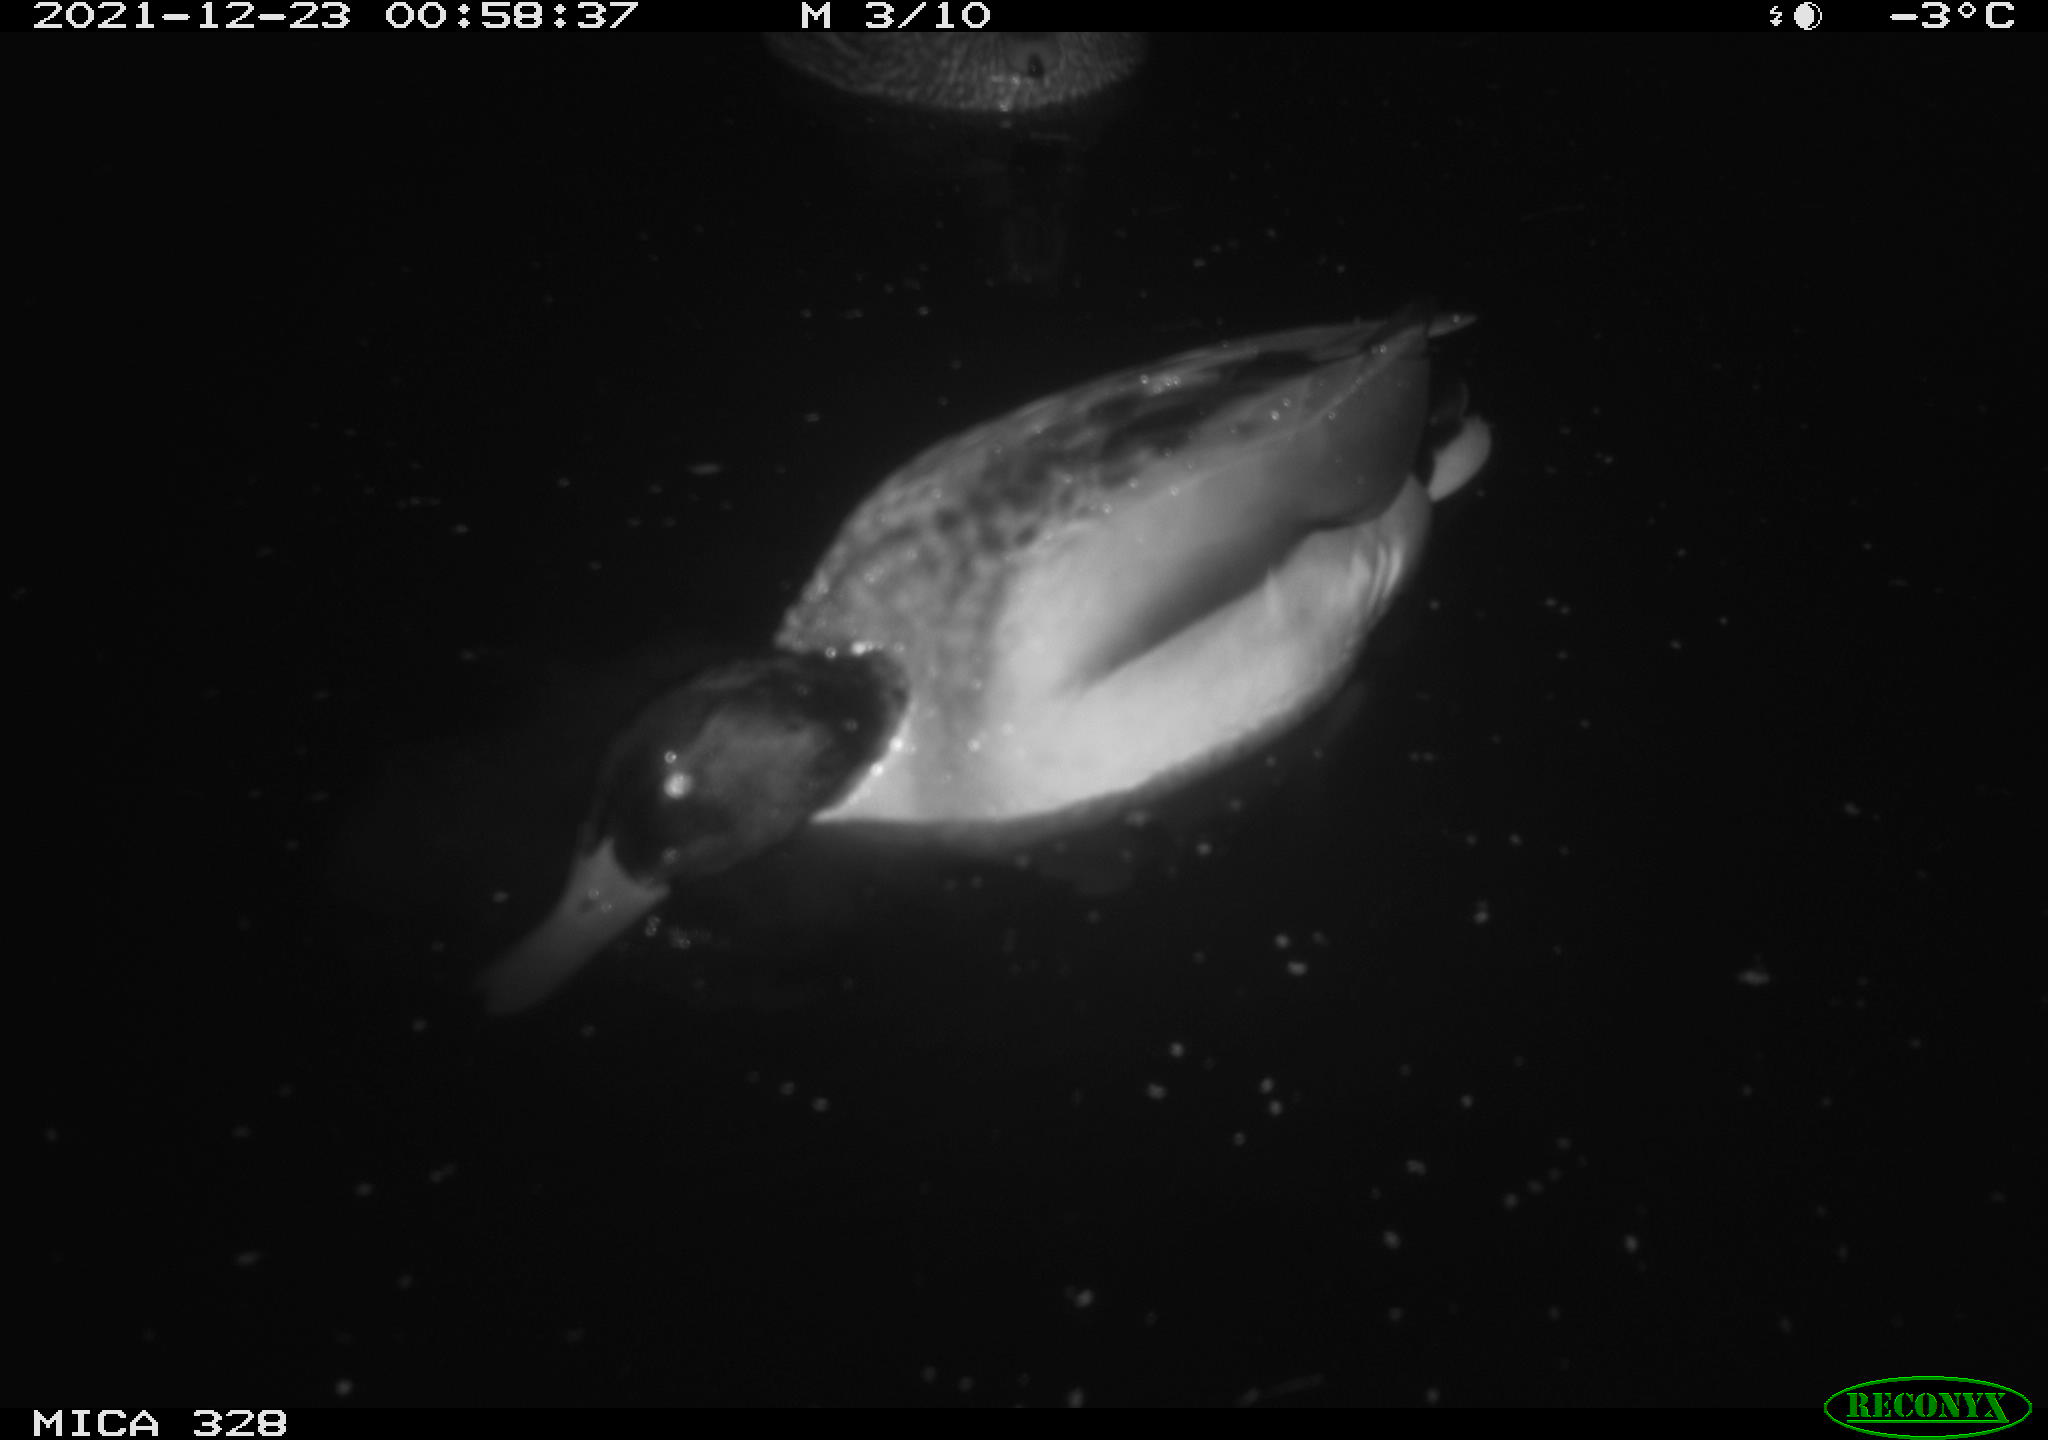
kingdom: Animalia
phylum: Chordata
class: Aves
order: Anseriformes
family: Anatidae
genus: Anas
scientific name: Anas platyrhynchos
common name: Mallard
